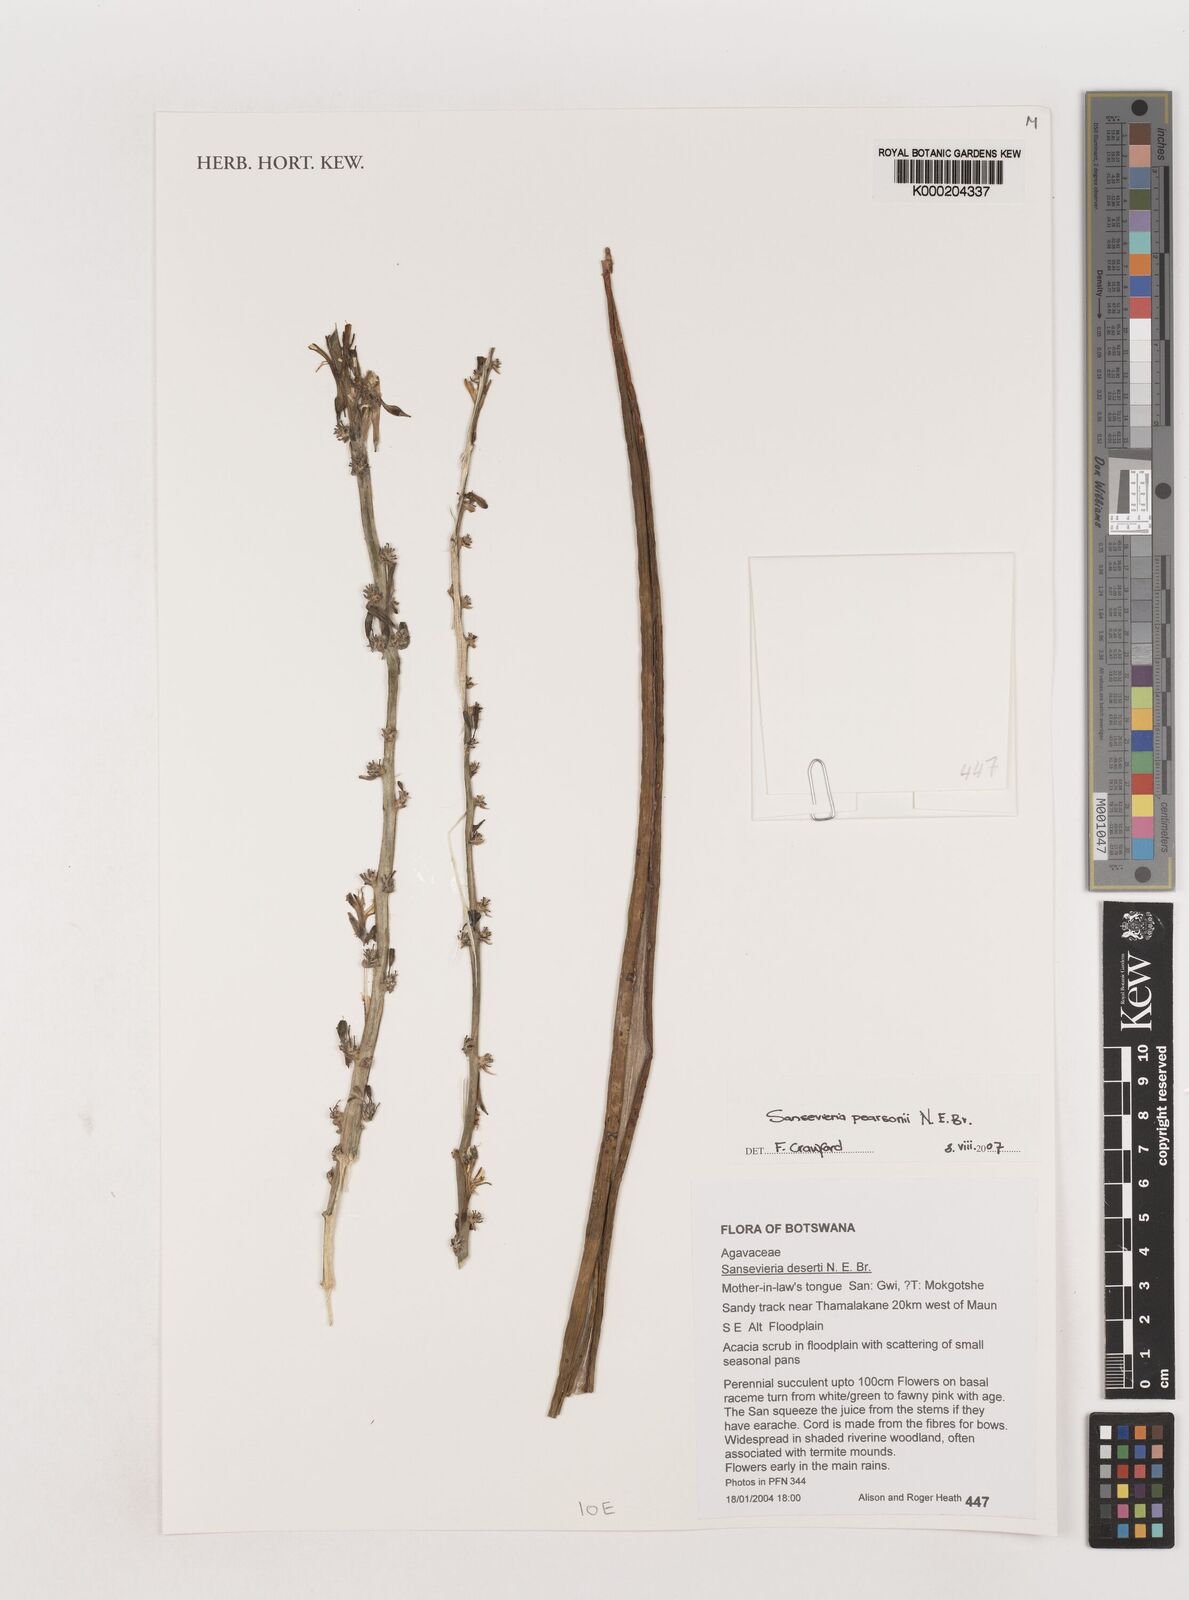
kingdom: Plantae
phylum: Tracheophyta
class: Liliopsida
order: Asparagales
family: Asparagaceae
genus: Dracaena
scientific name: Dracaena pearsonii
